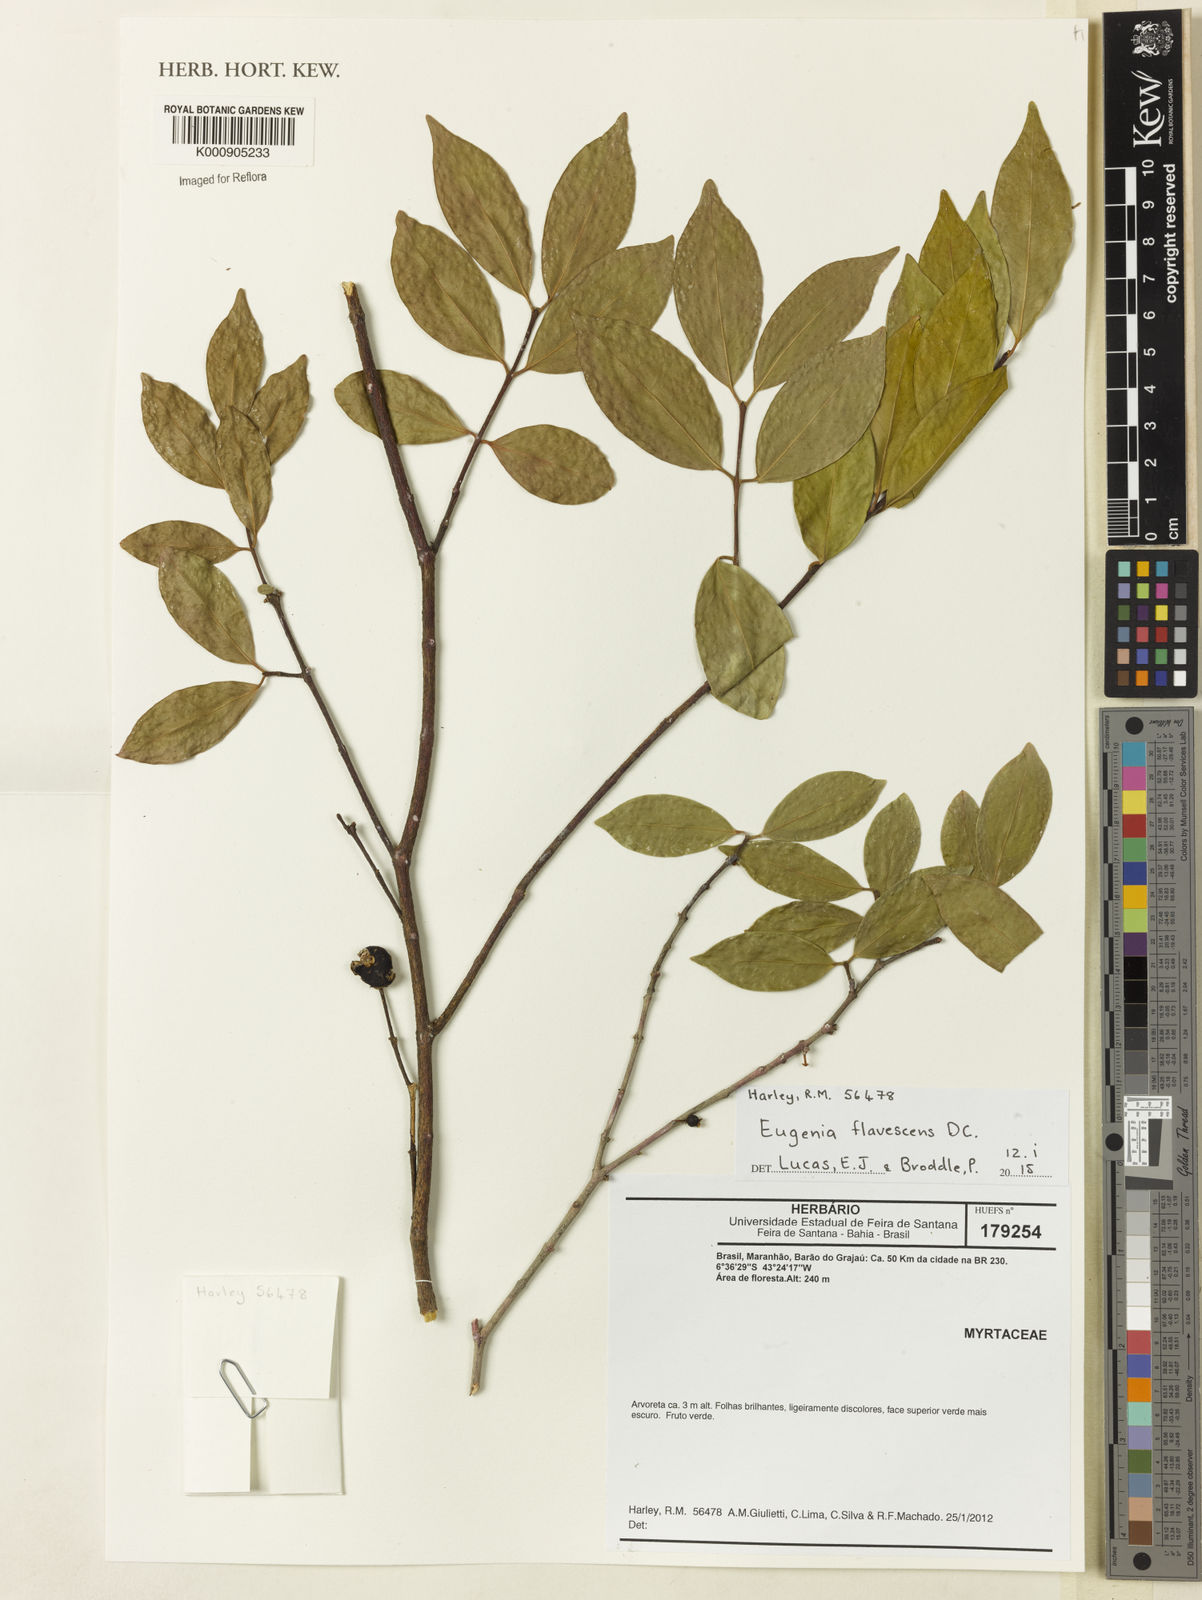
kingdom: Plantae
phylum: Tracheophyta
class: Magnoliopsida
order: Myrtales
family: Myrtaceae
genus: Eugenia
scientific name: Eugenia flavescens
